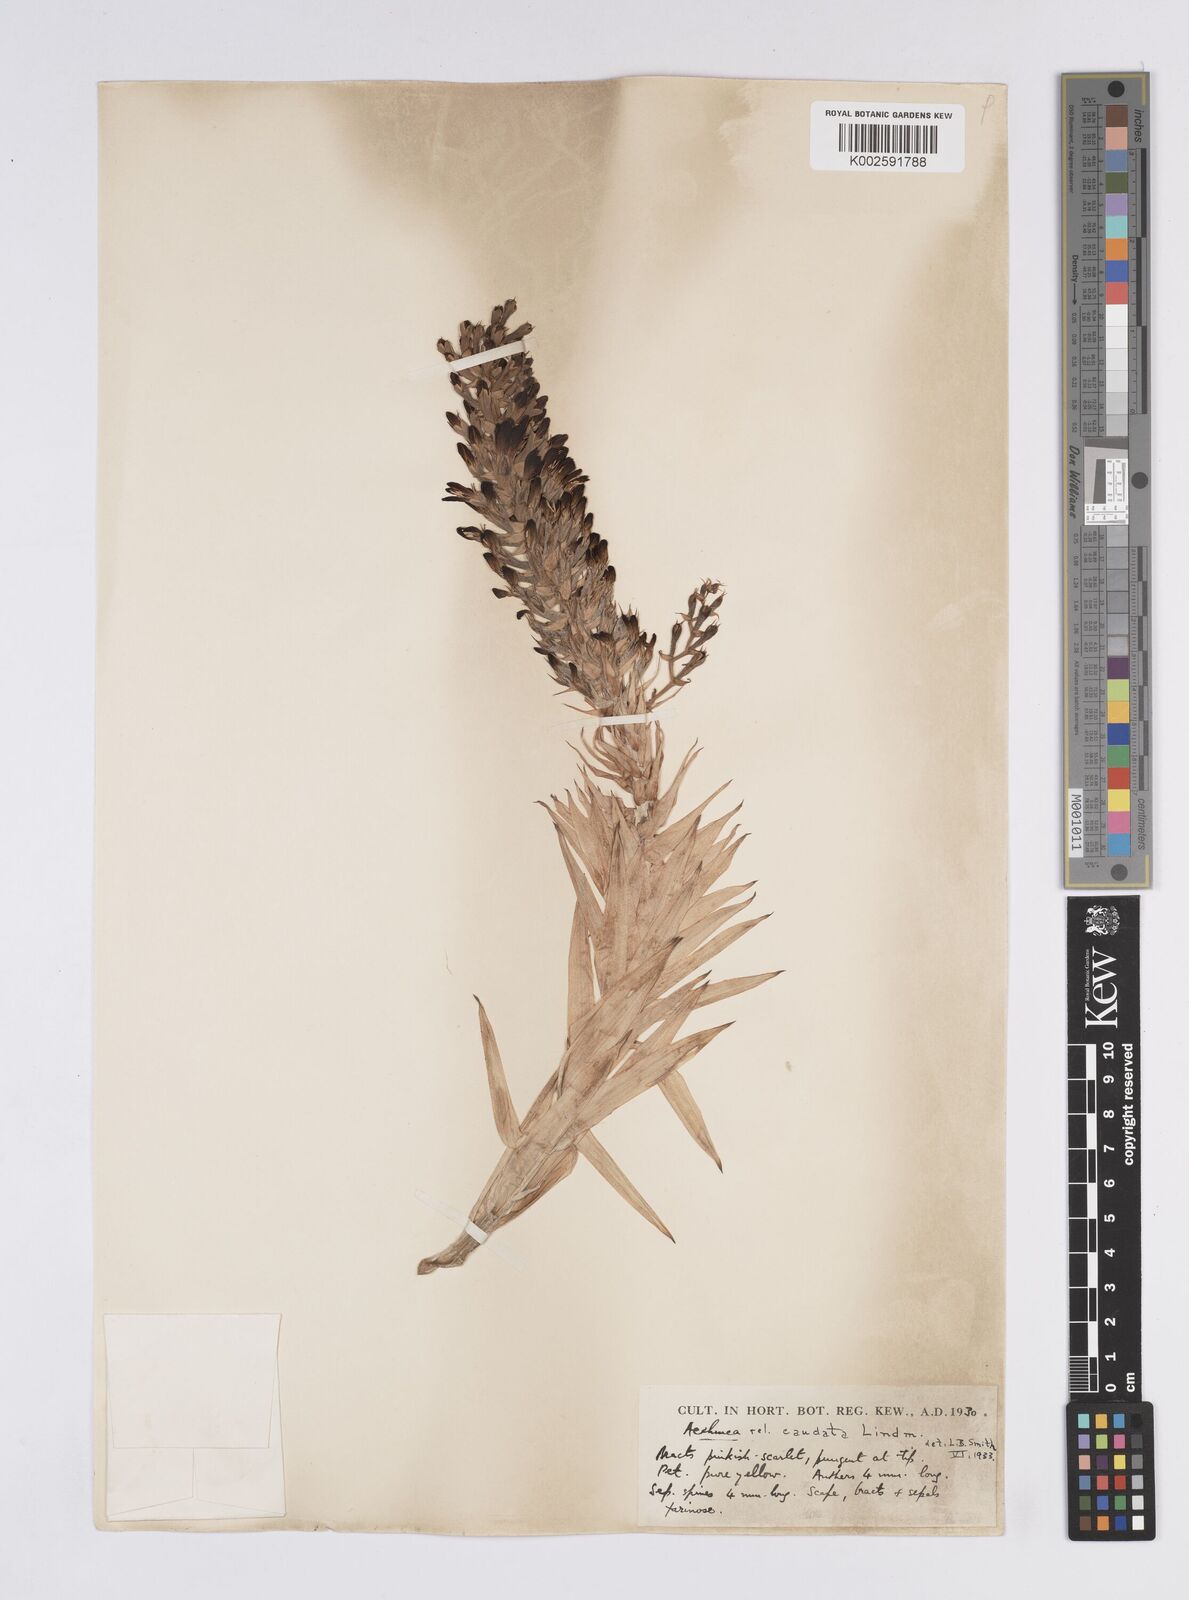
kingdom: Plantae
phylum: Tracheophyta
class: Liliopsida
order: Poales
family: Bromeliaceae
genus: Aechmea
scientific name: Aechmea caudata
